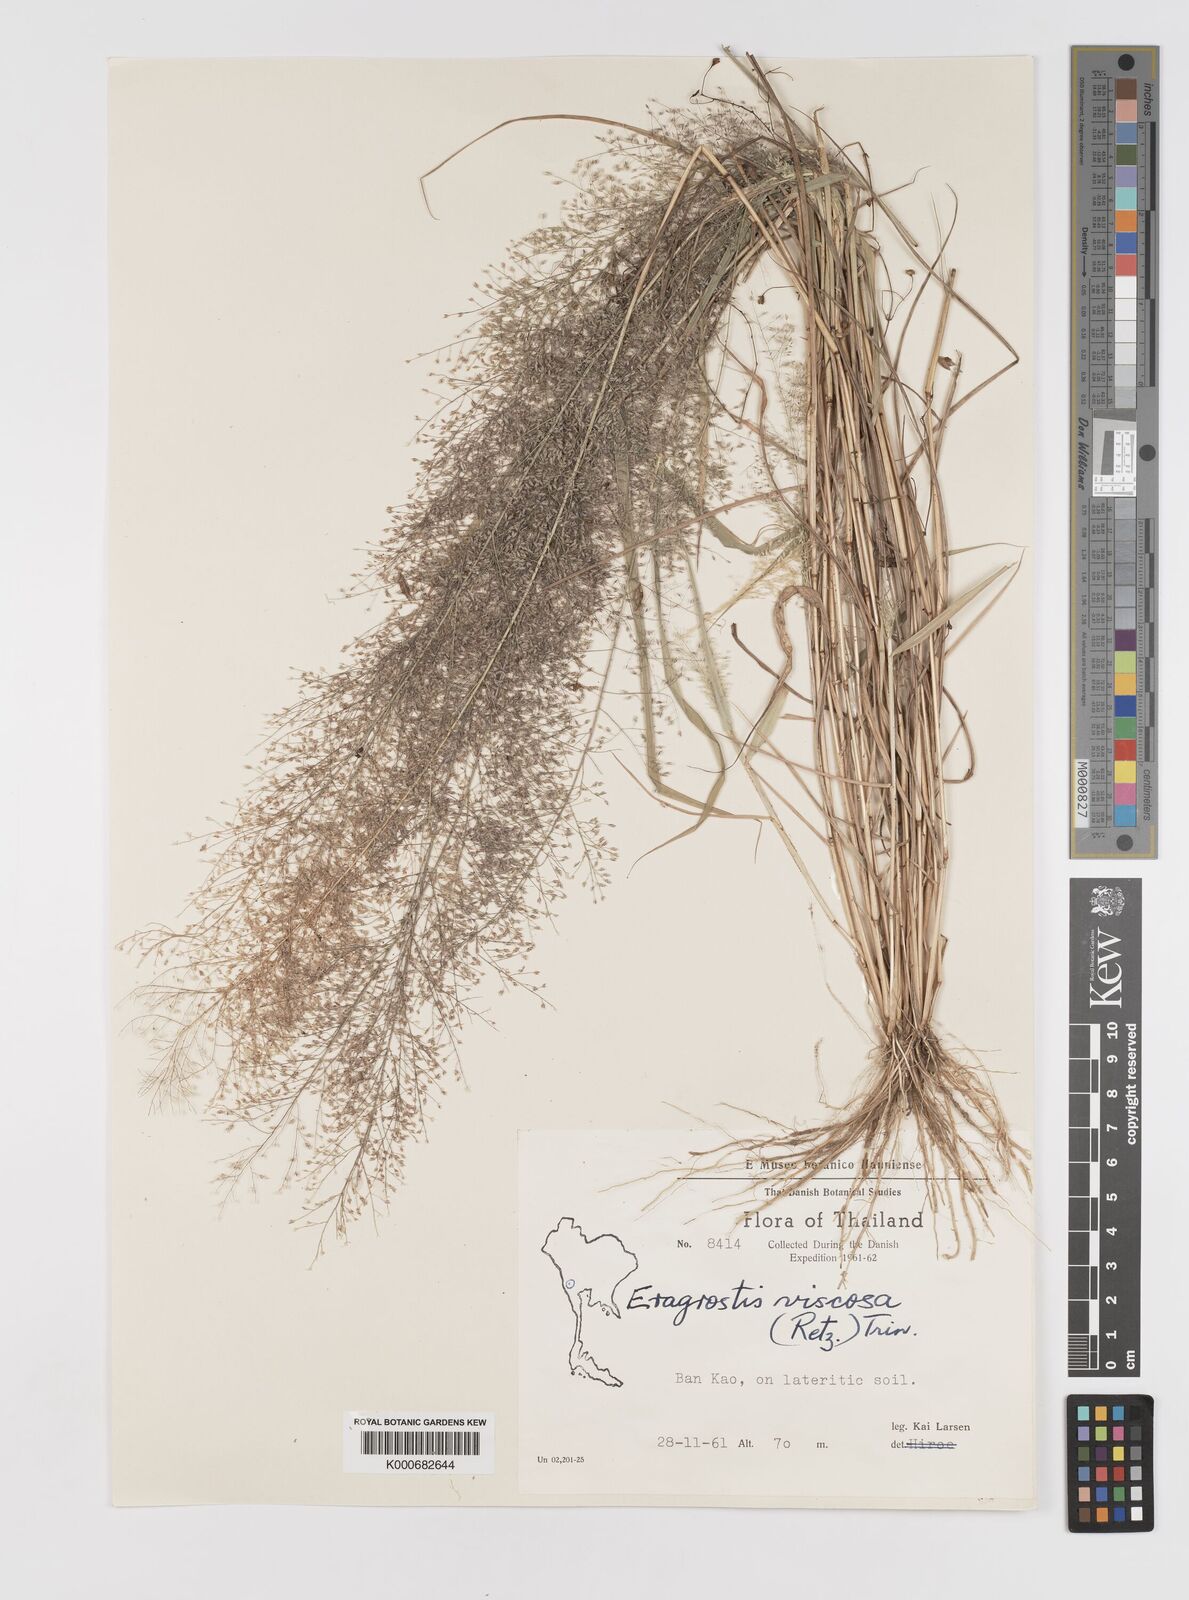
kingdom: Plantae
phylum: Tracheophyta
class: Liliopsida
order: Poales
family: Poaceae
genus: Eragrostis
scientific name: Eragrostis viscosa
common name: Sticky love grass
